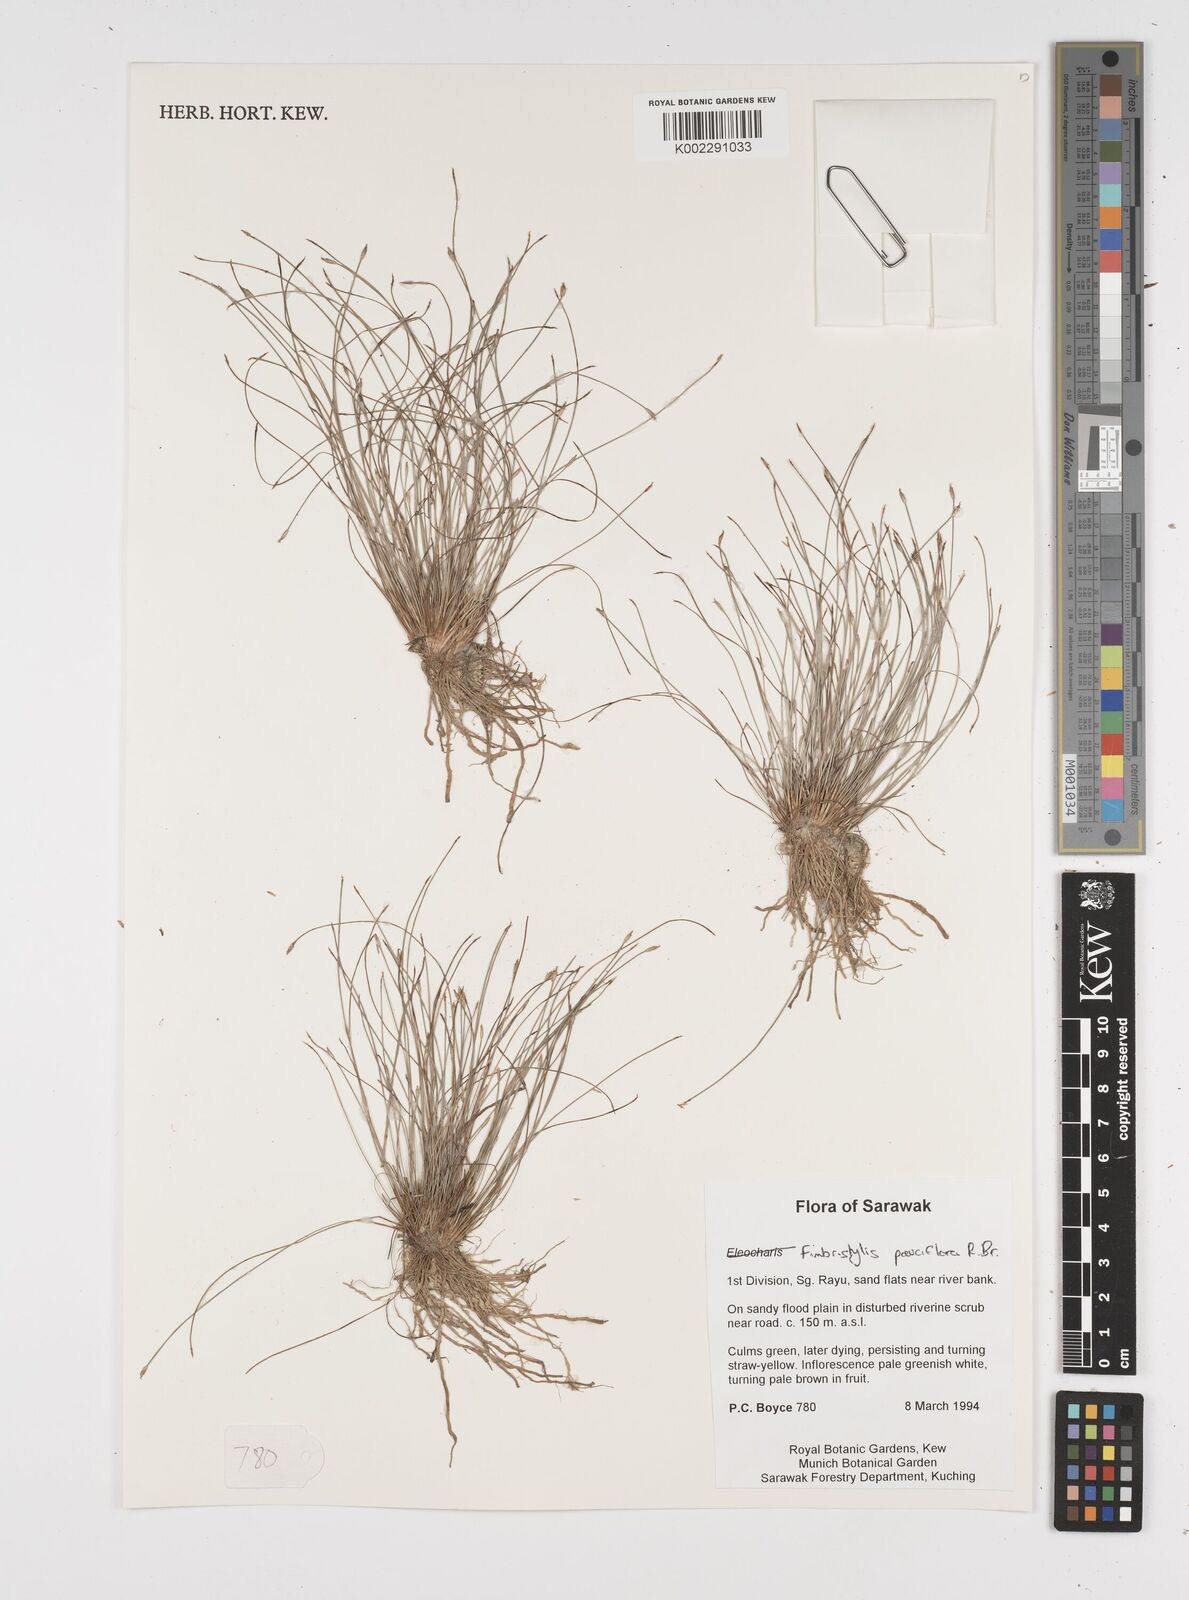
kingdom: Plantae
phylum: Tracheophyta
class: Liliopsida
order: Poales
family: Cyperaceae
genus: Fimbristylis
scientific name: Fimbristylis pauciflora
